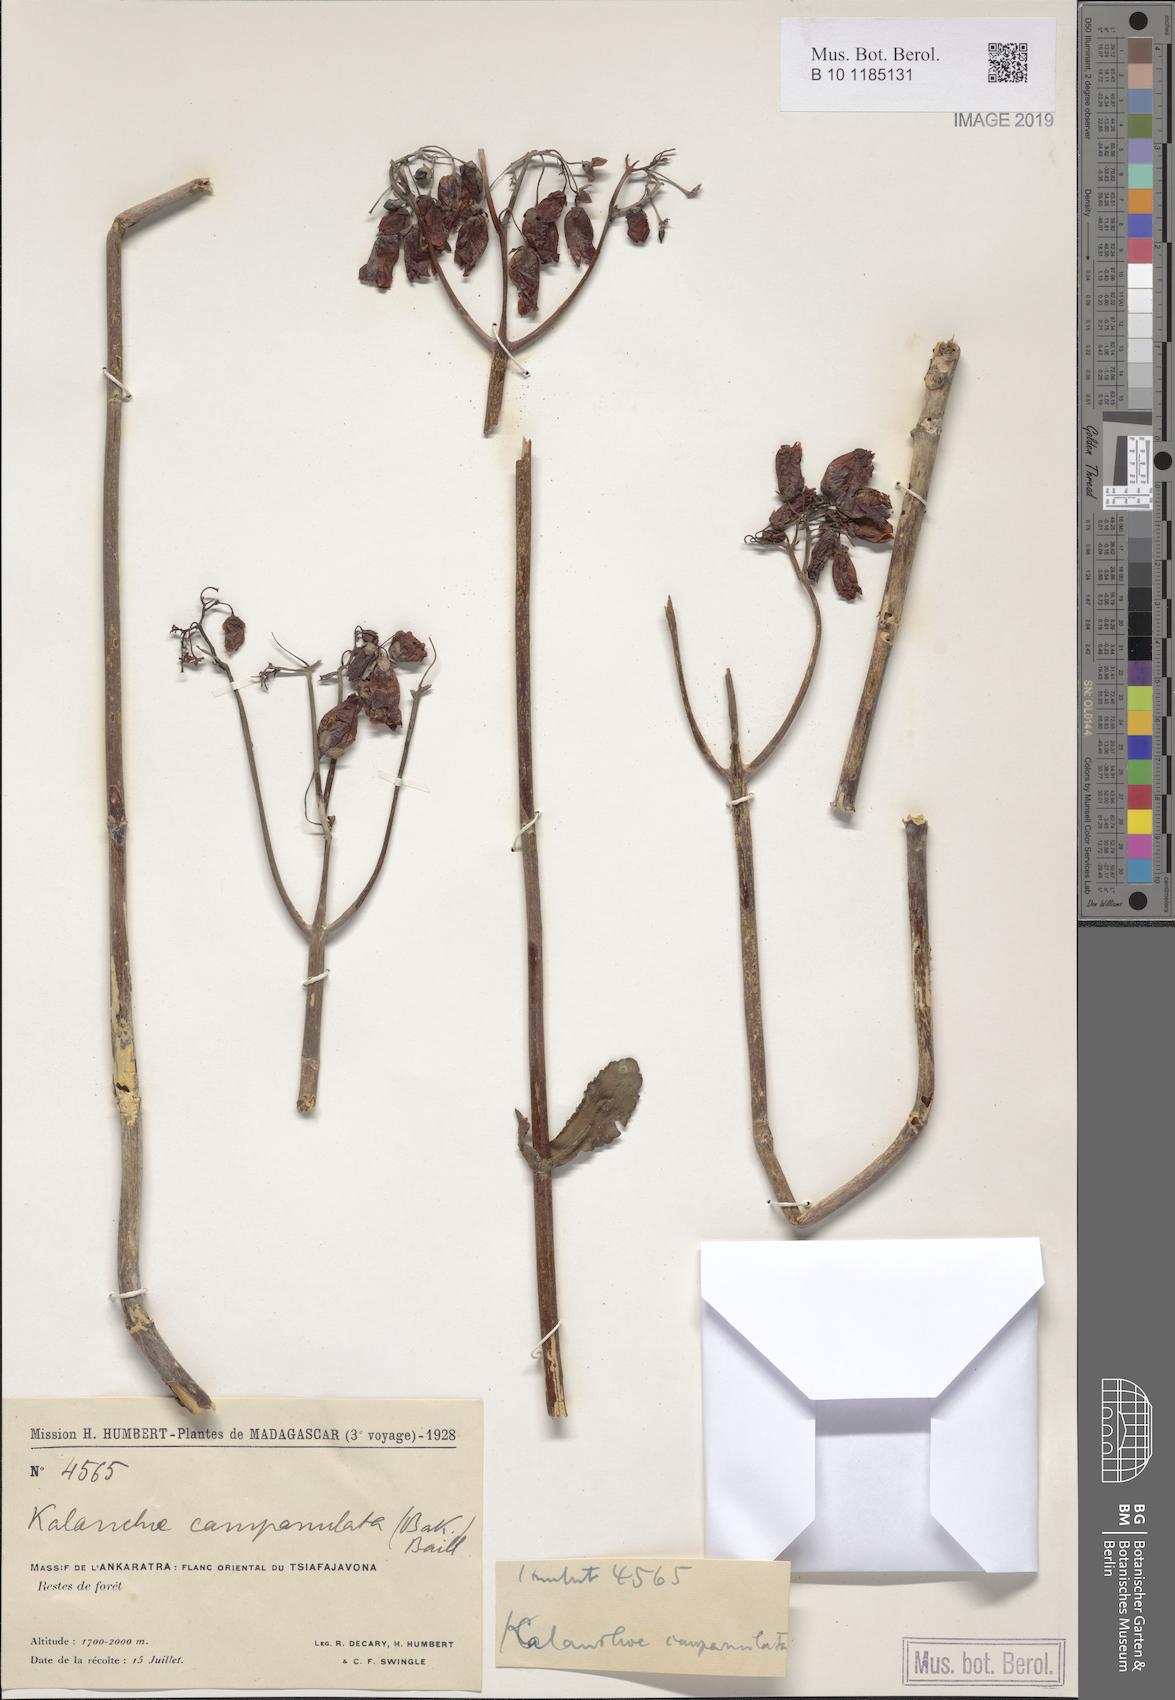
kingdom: Plantae
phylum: Tracheophyta
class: Magnoliopsida
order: Saxifragales
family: Crassulaceae
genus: Kalanchoe
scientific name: Kalanchoe campanulata
